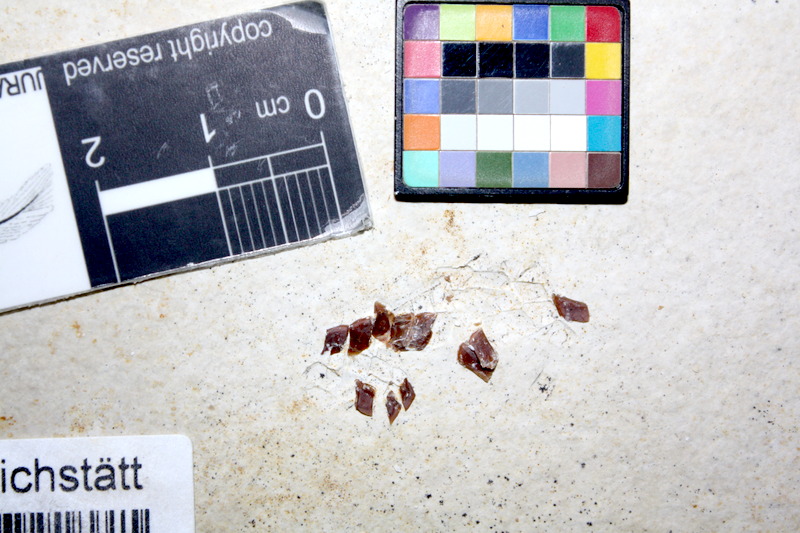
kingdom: Animalia
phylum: Chordata
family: Ophiopsiellidae
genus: Ophiopsiella
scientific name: Ophiopsiella
